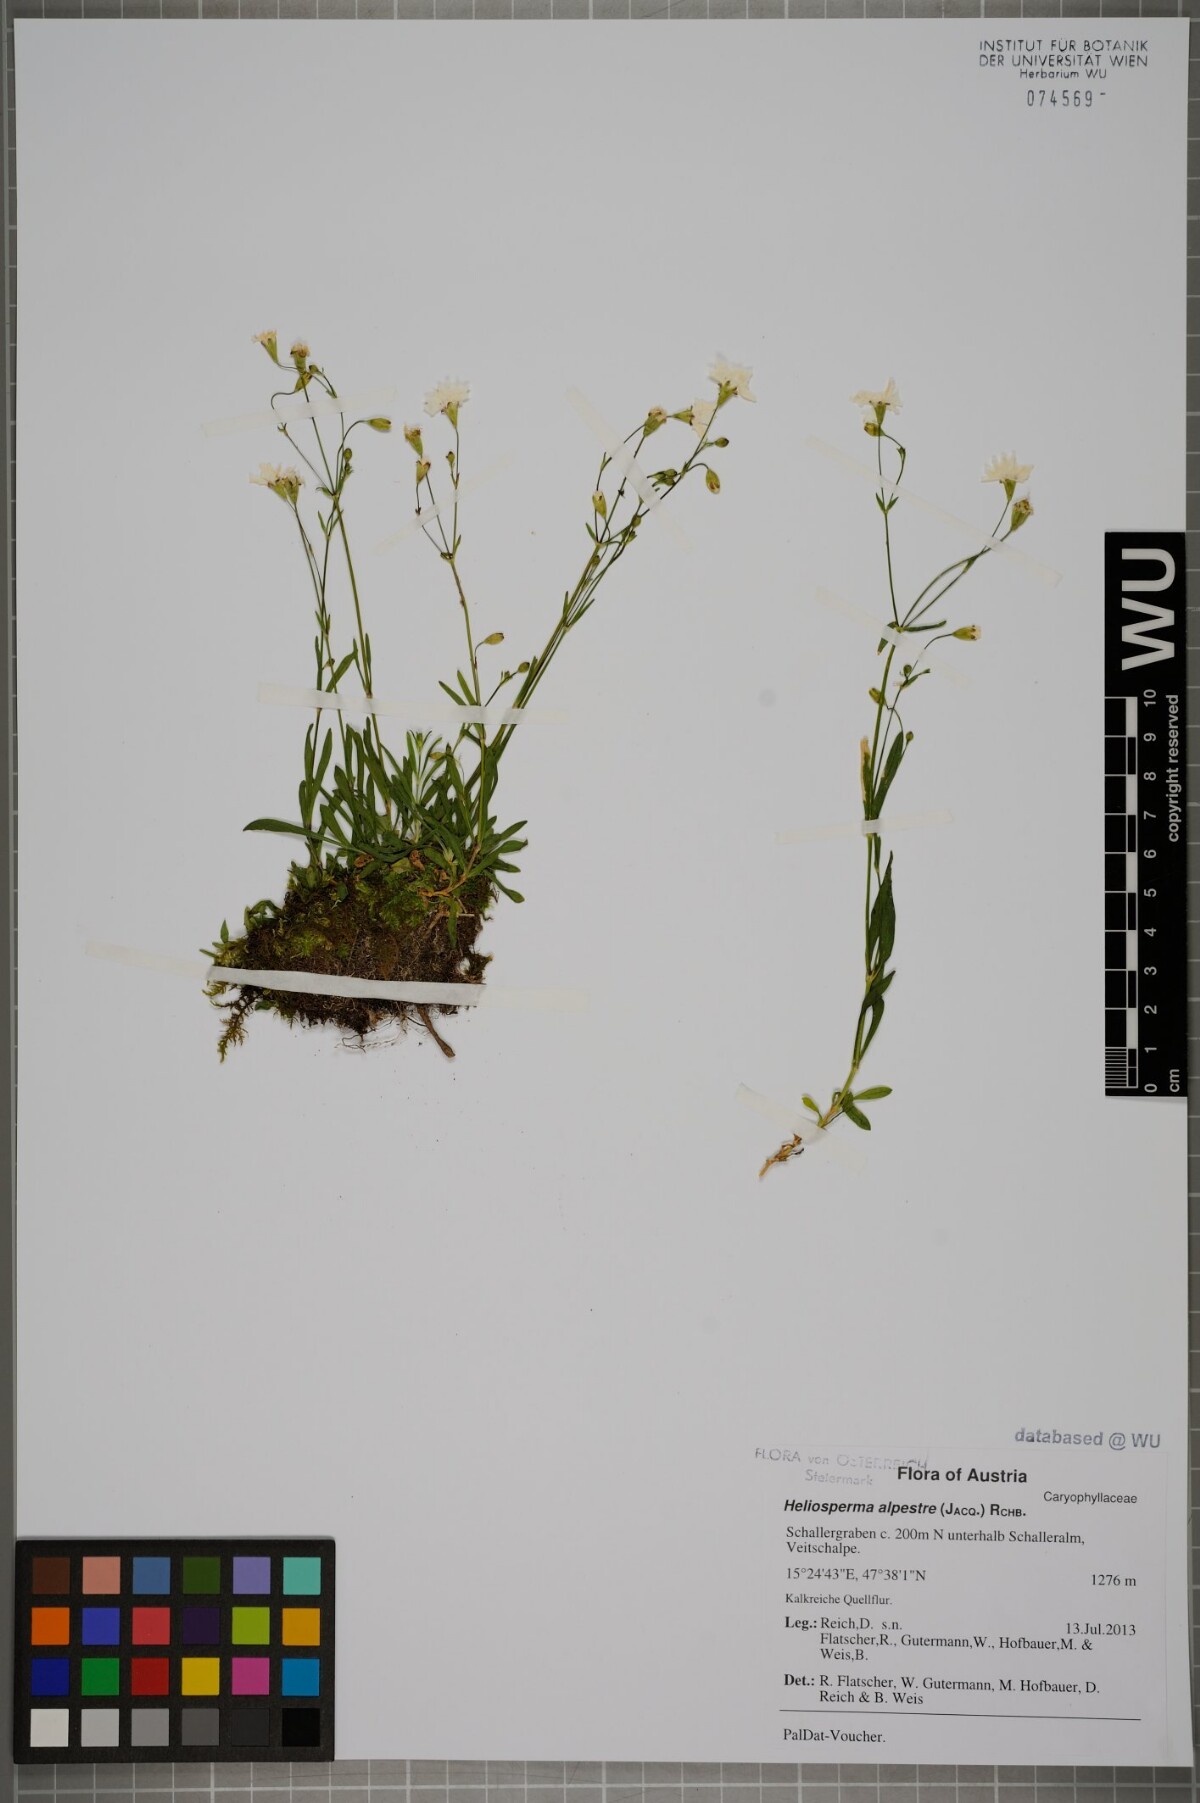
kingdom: Plantae
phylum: Tracheophyta
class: Magnoliopsida
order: Caryophyllales
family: Caryophyllaceae
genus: Heliosperma
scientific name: Heliosperma alpestre
